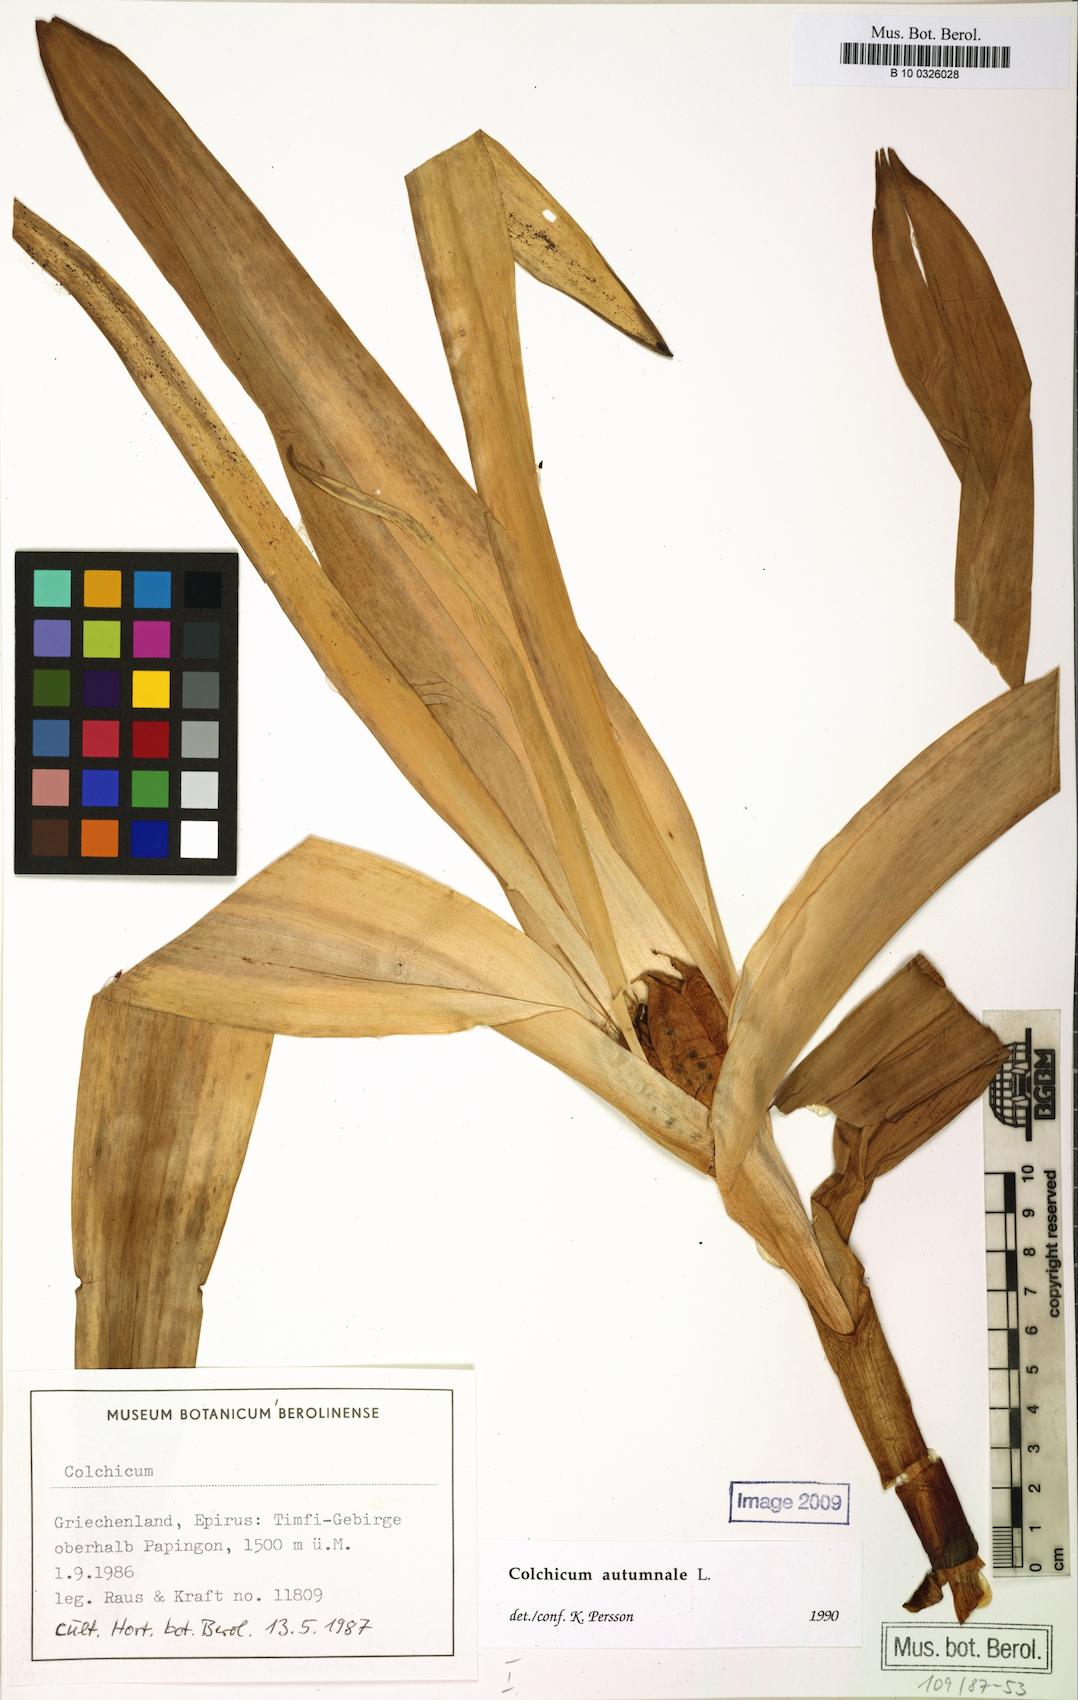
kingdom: Plantae
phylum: Tracheophyta
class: Liliopsida
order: Liliales
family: Colchicaceae
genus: Colchicum
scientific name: Colchicum autumnale
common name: Autumn crocus
